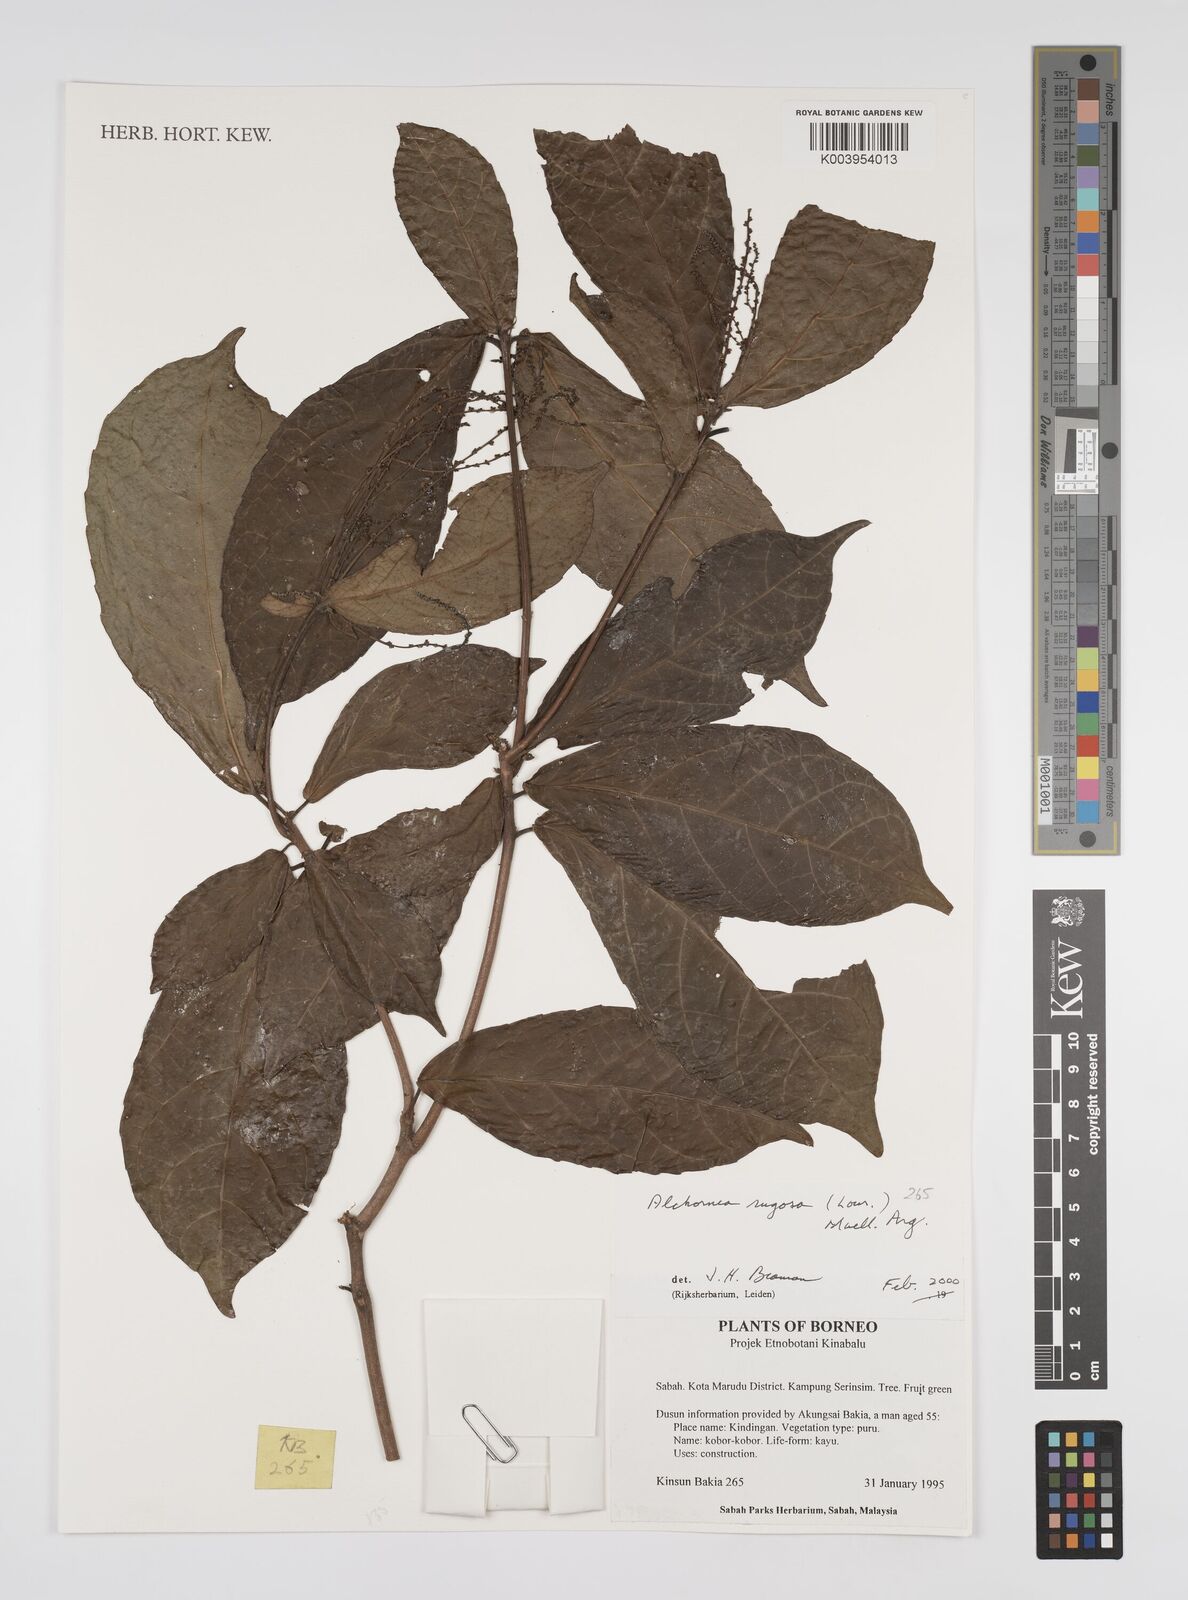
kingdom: Plantae
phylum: Tracheophyta
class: Magnoliopsida
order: Malpighiales
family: Euphorbiaceae
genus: Alchornea
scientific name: Alchornea rugosa
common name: Alchorntree
